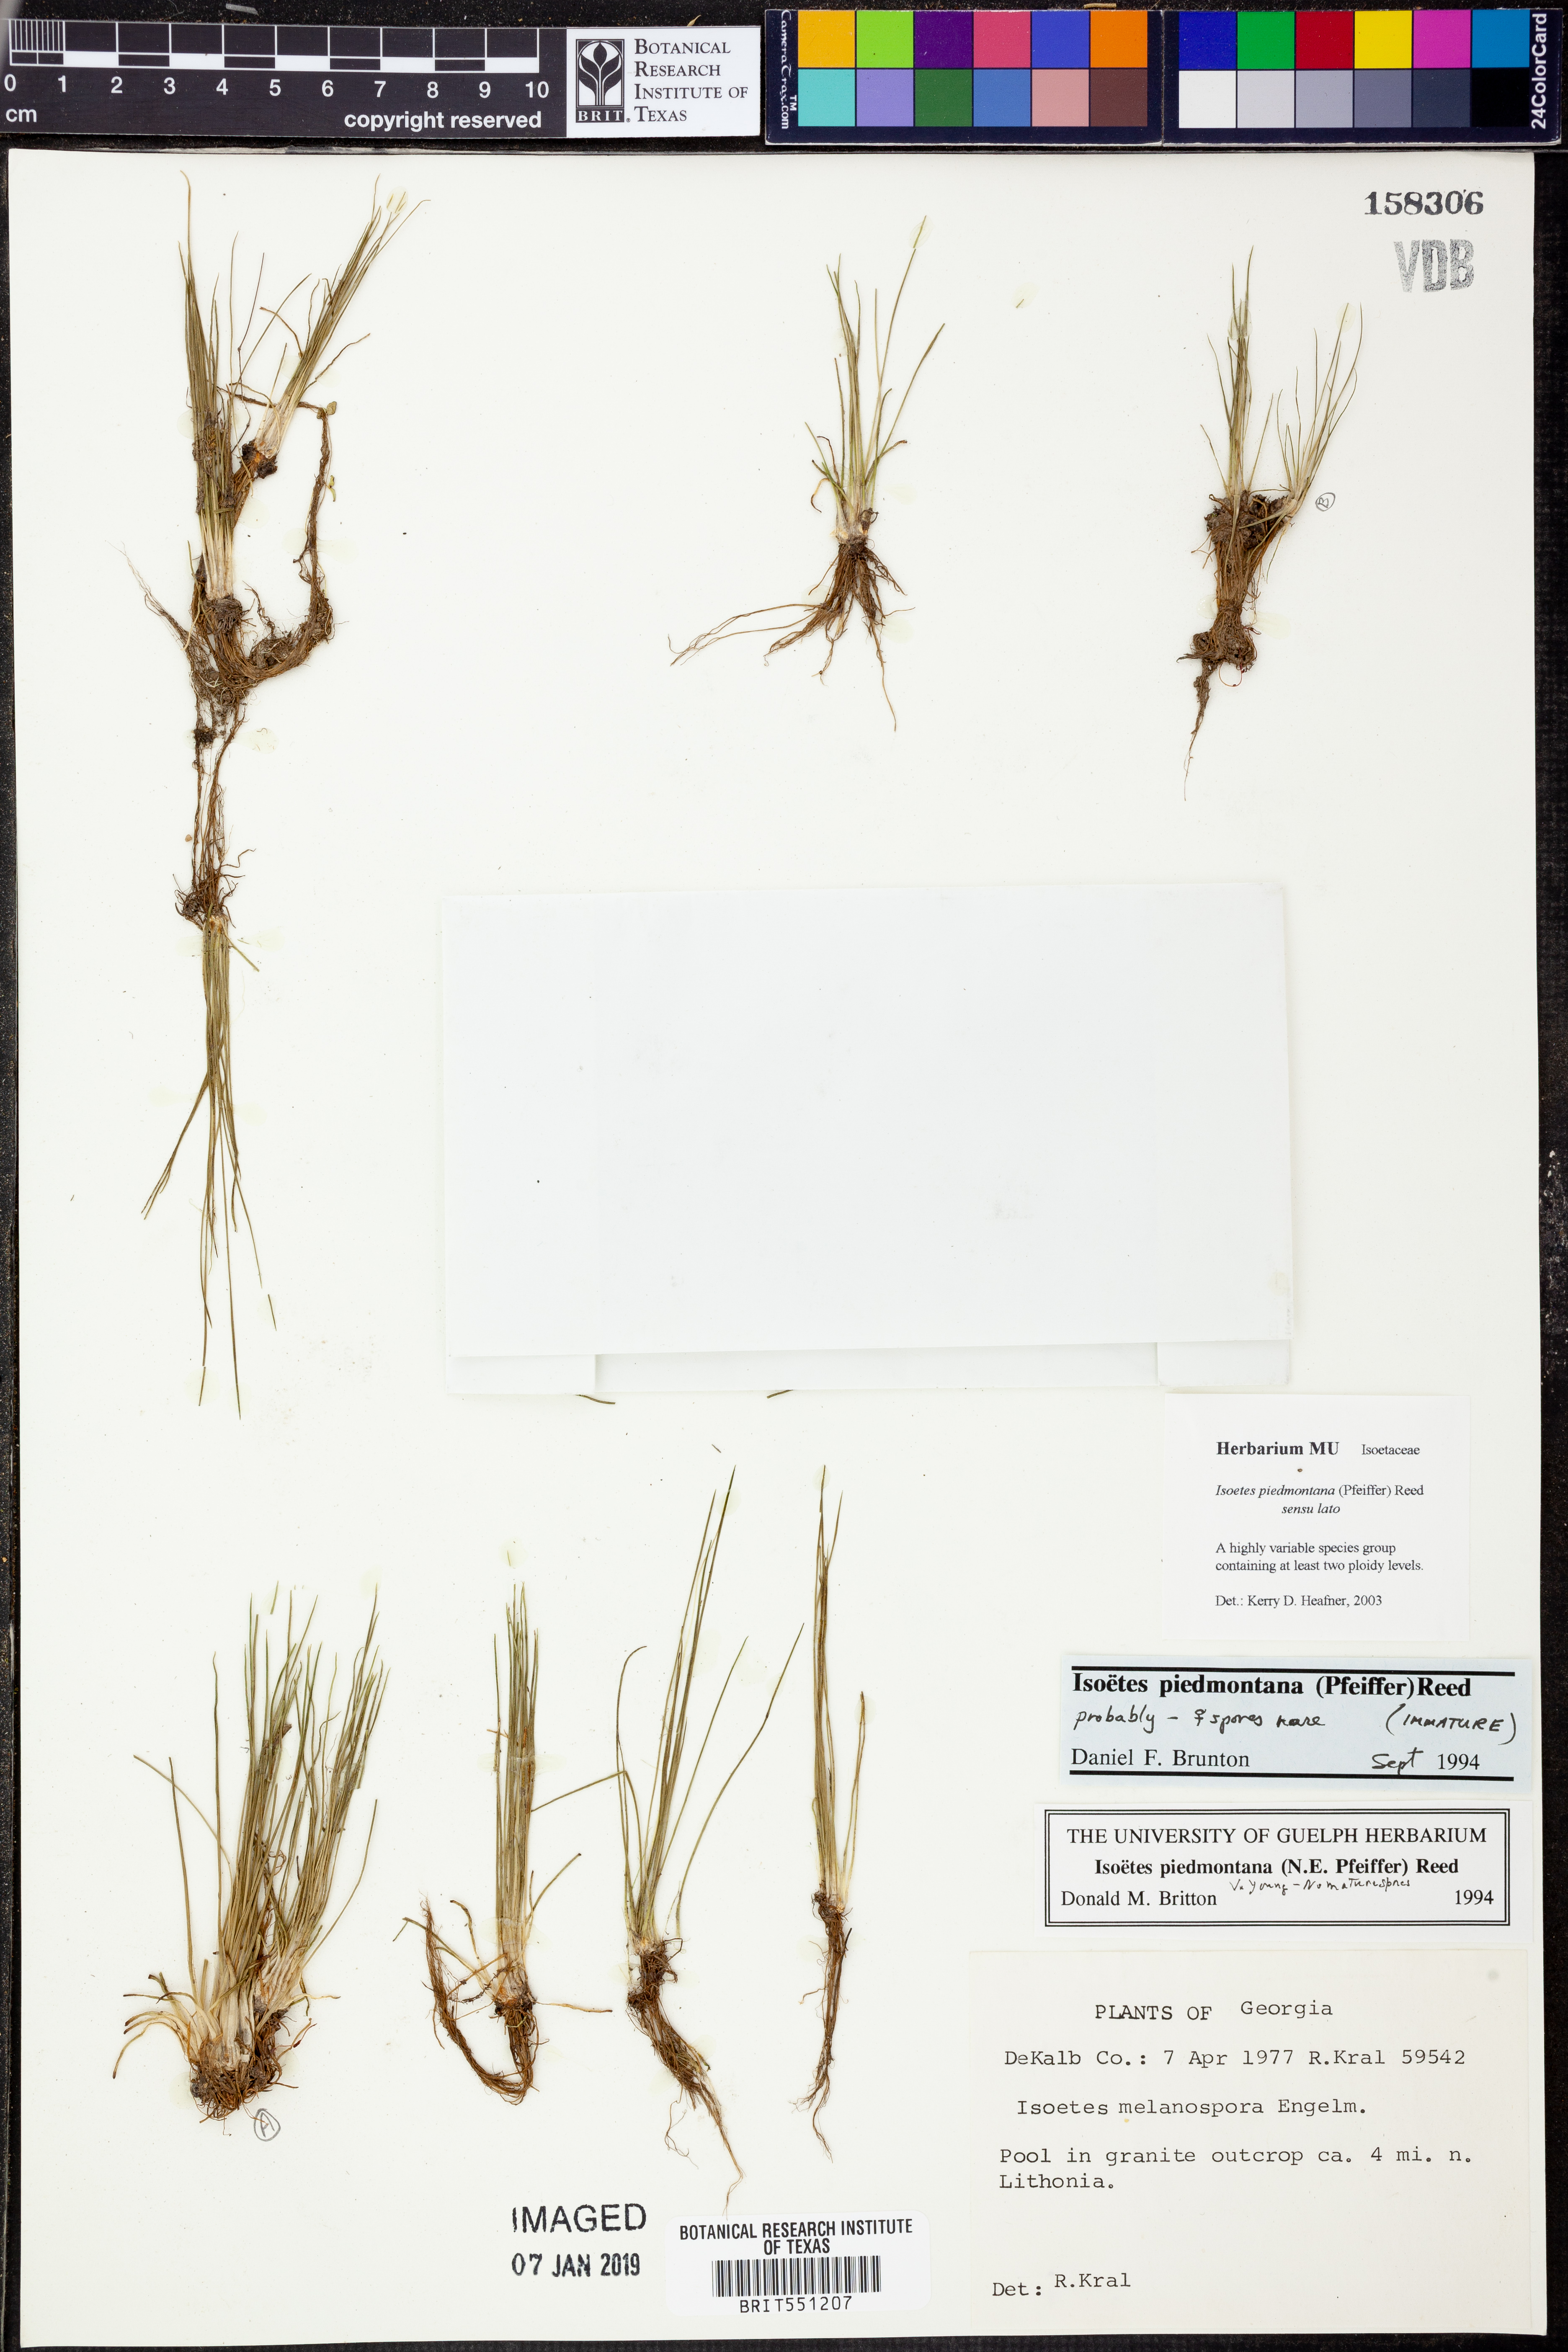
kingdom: Plantae
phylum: Tracheophyta
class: Lycopodiopsida
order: Isoetales
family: Isoetaceae
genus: Isoetes
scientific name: Isoetes virginica
